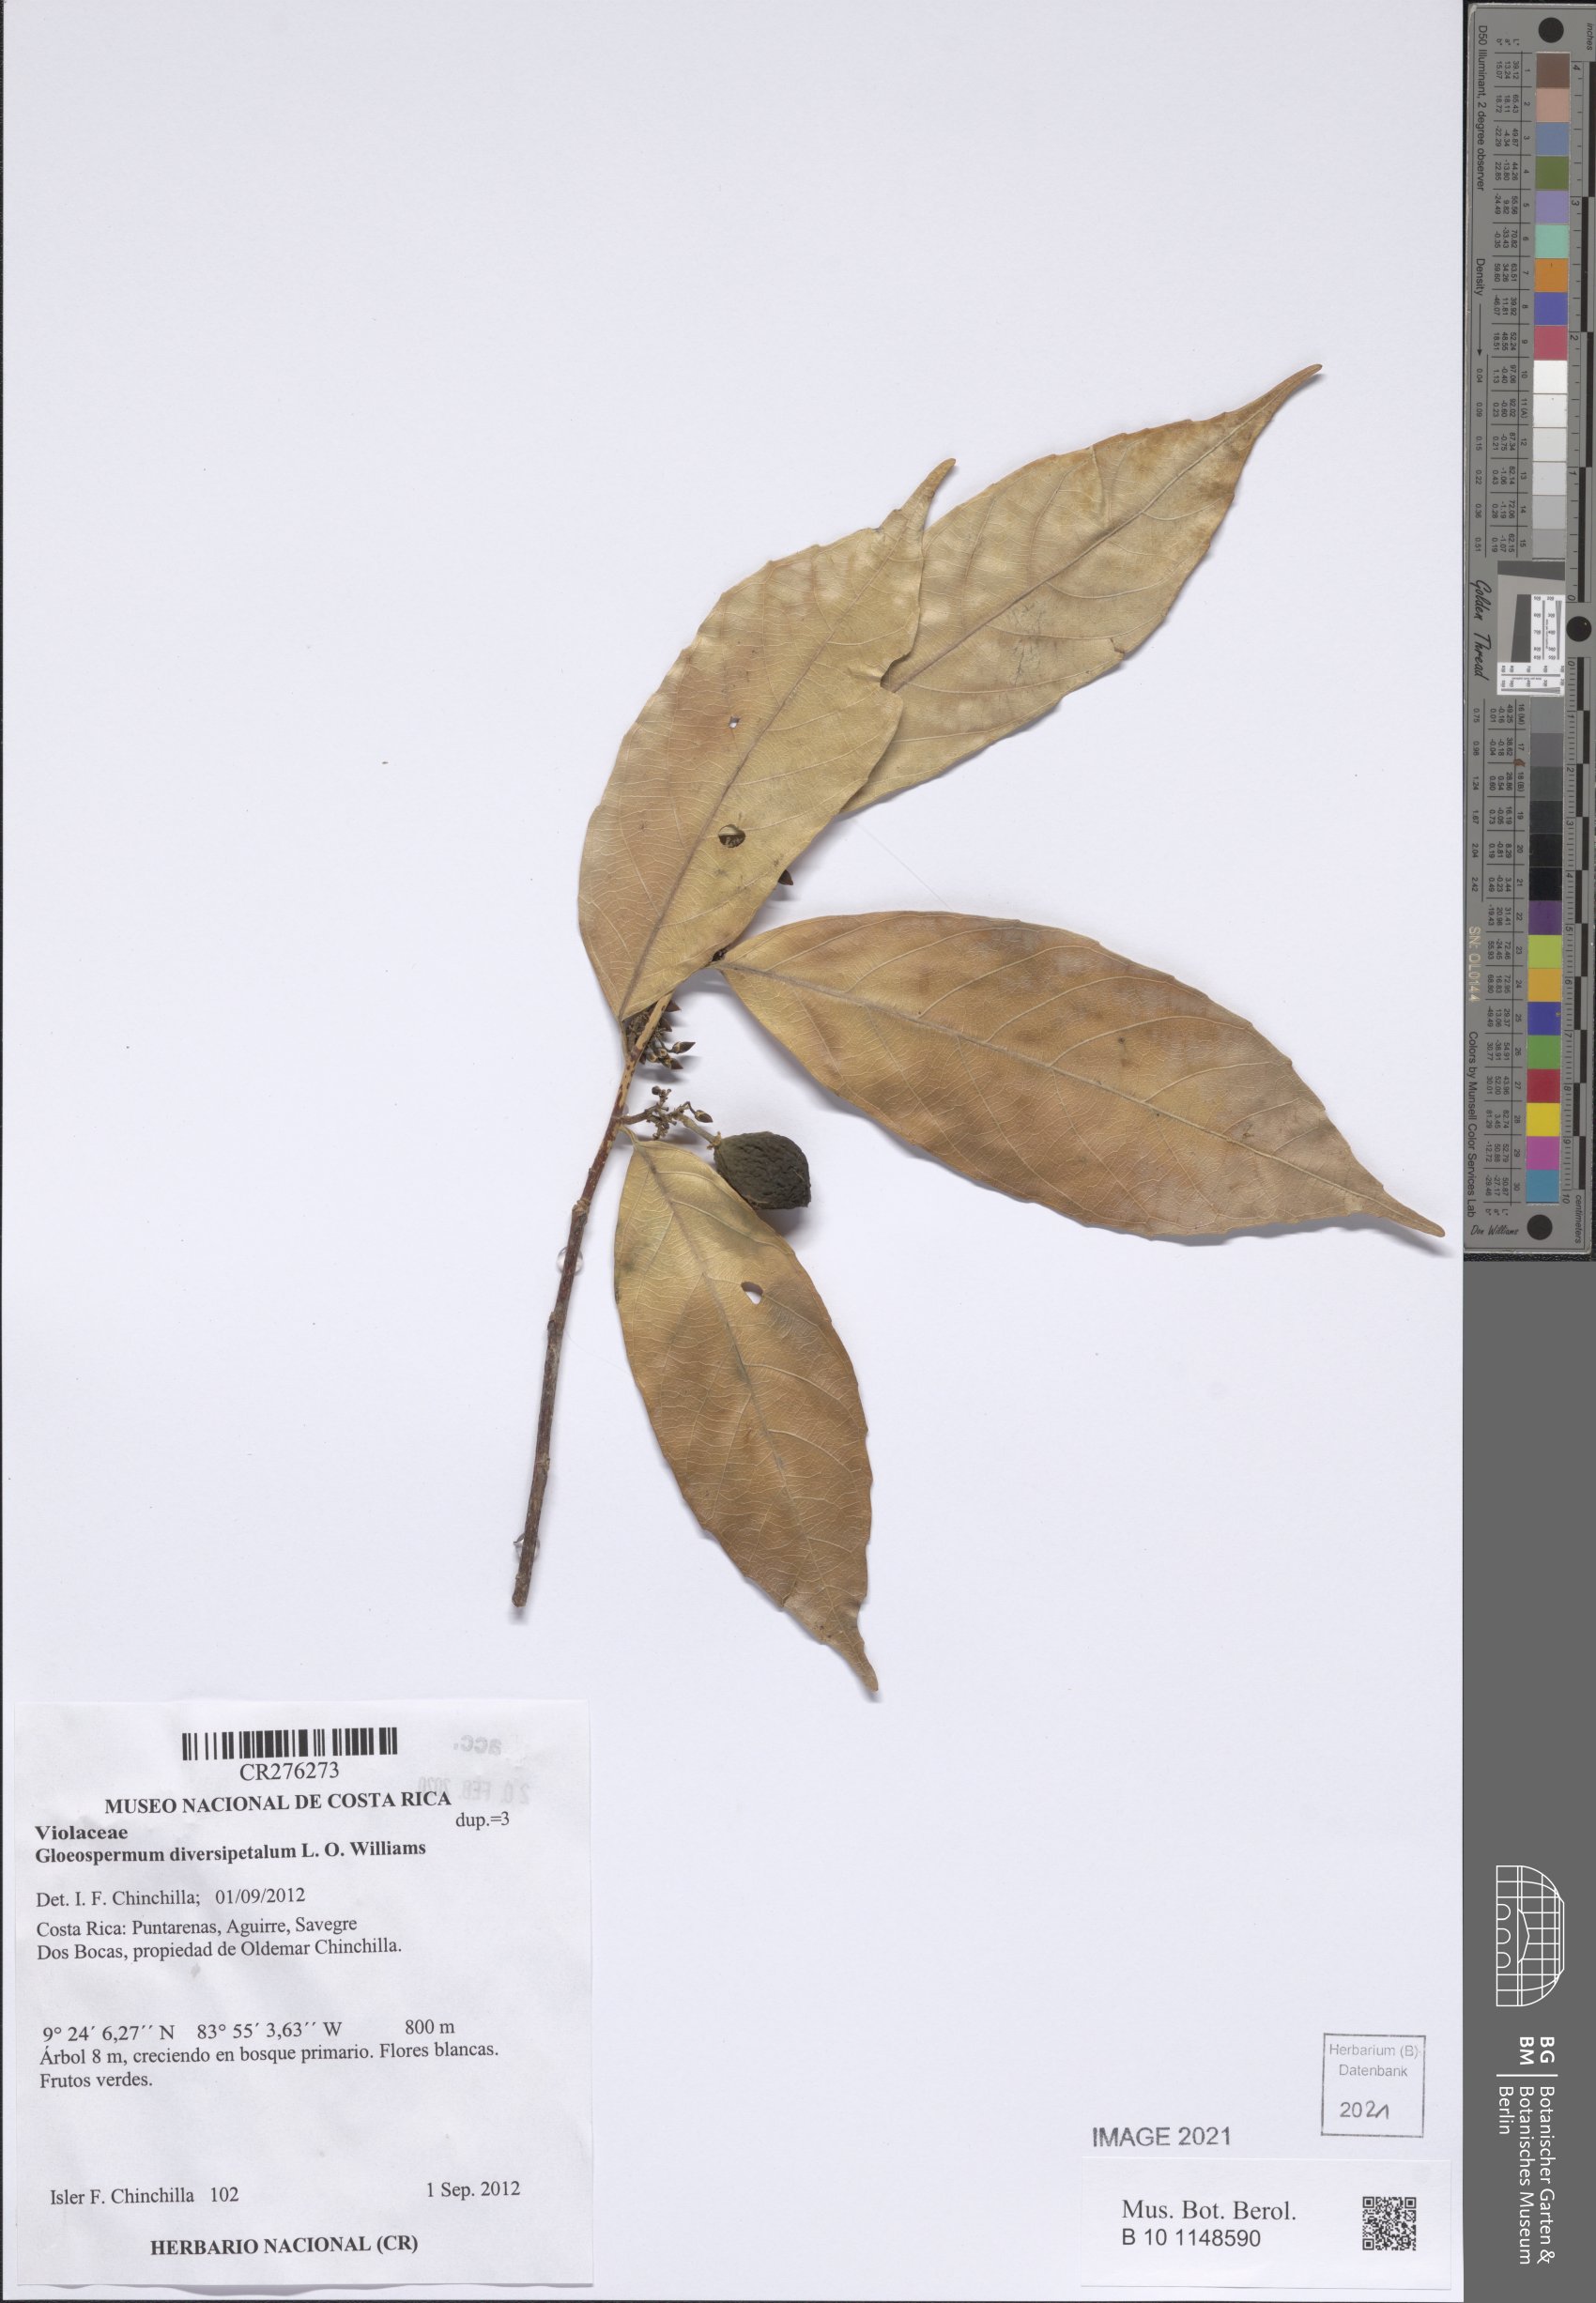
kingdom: Plantae
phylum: Tracheophyta
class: Magnoliopsida
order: Malpighiales
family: Violaceae
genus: Gloeospermum
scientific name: Gloeospermum boreale
